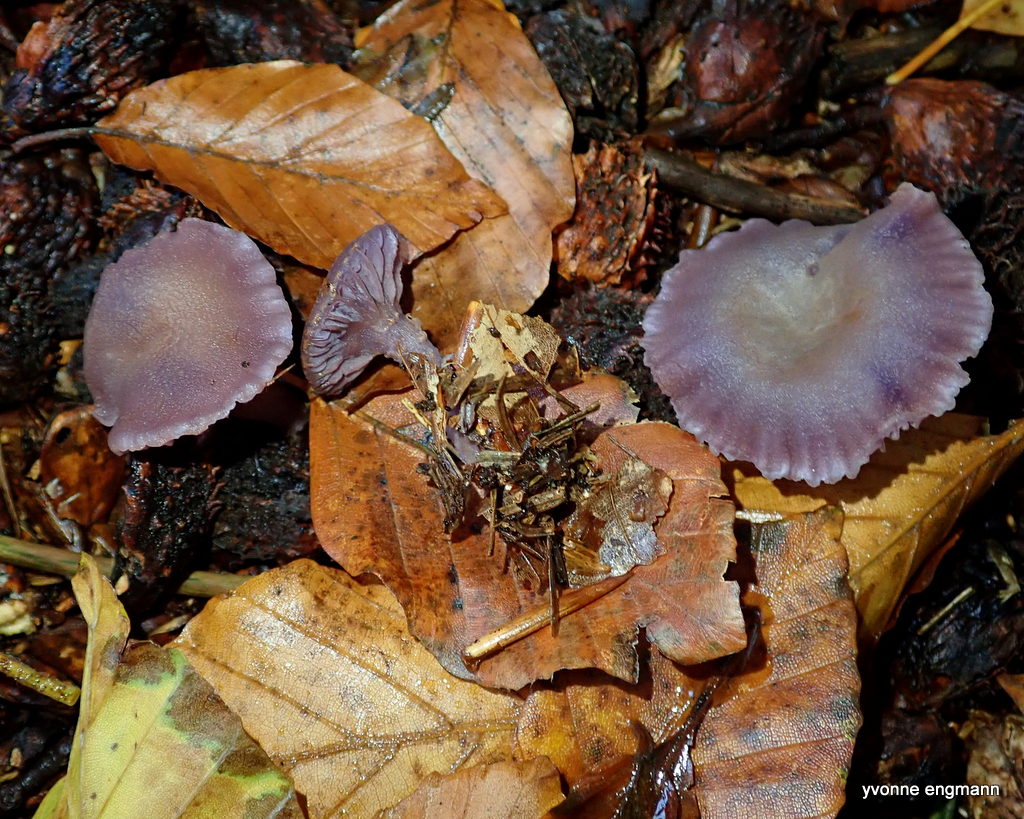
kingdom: Fungi
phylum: Basidiomycota
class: Agaricomycetes
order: Agaricales
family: Hydnangiaceae
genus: Laccaria
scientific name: Laccaria amethystina
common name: violet ametysthat
